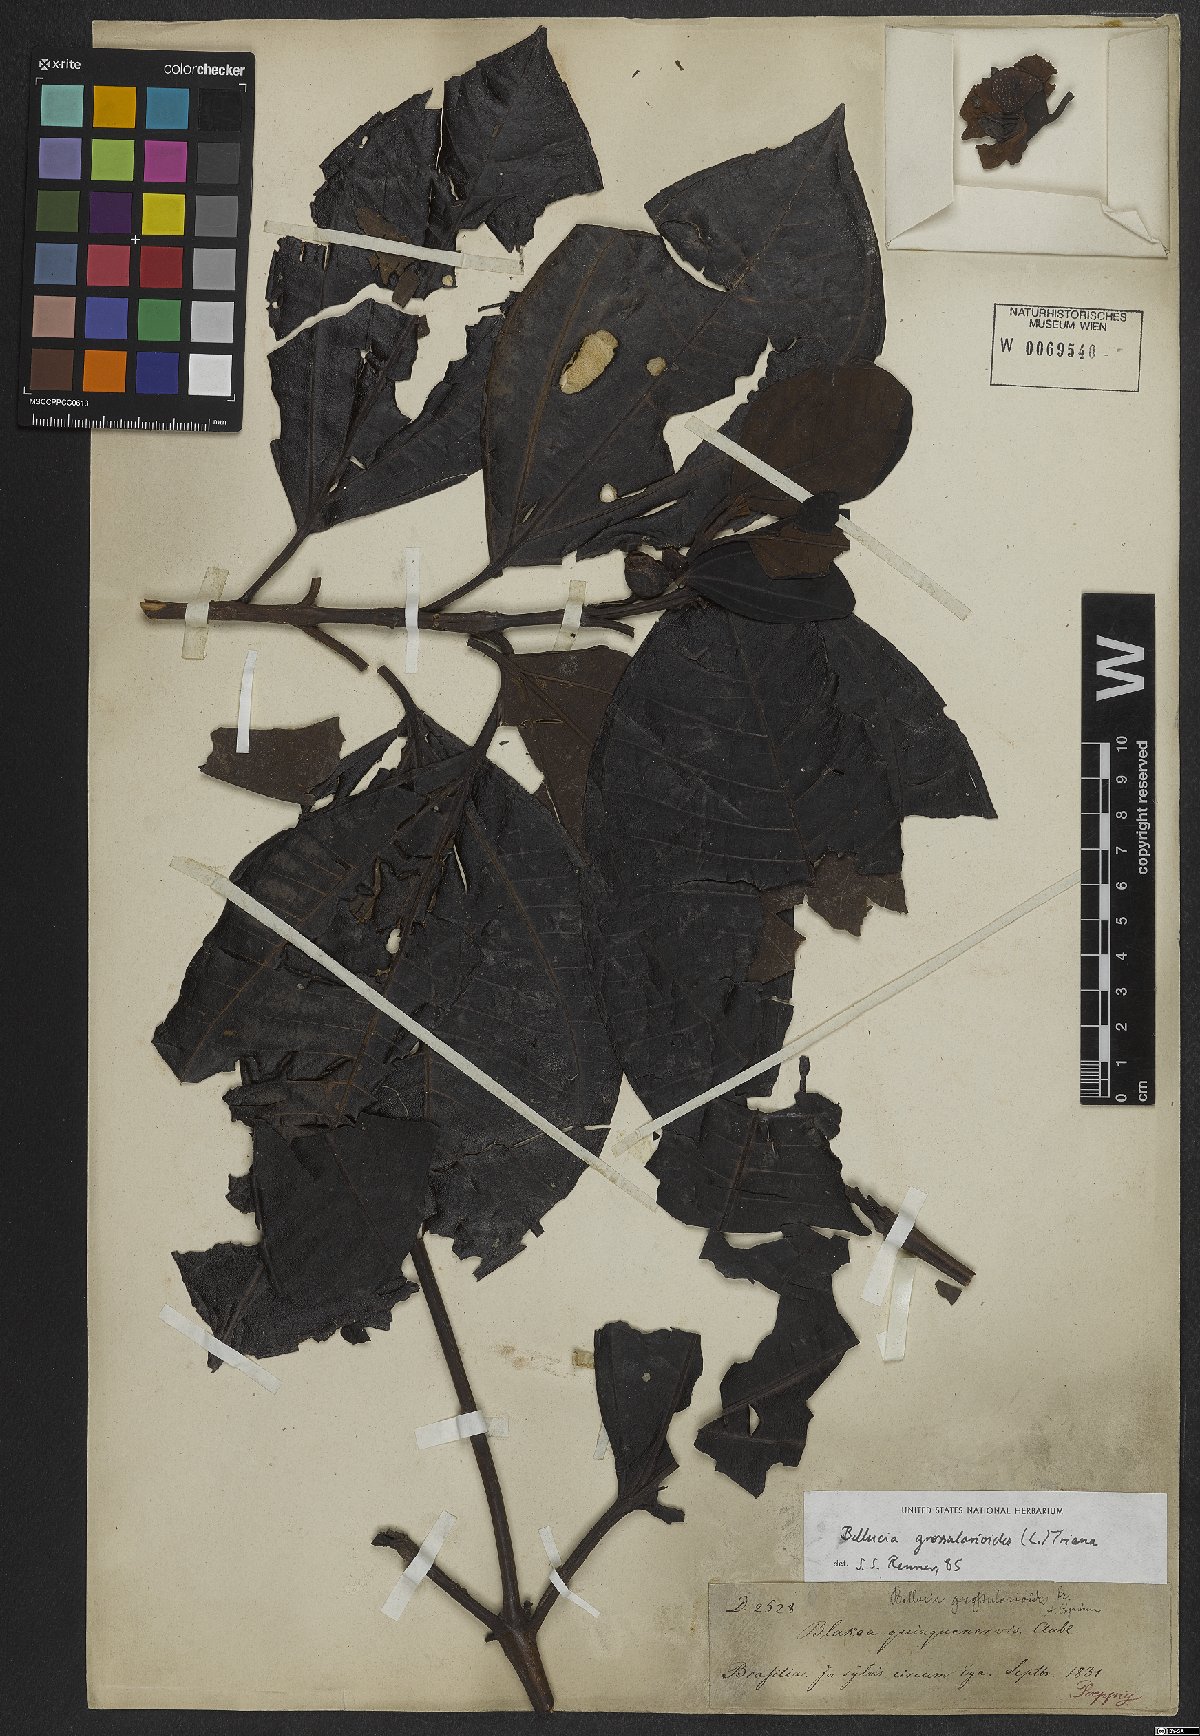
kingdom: Plantae
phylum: Tracheophyta
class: Magnoliopsida
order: Myrtales
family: Melastomataceae
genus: Bellucia
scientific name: Bellucia grossularioides
